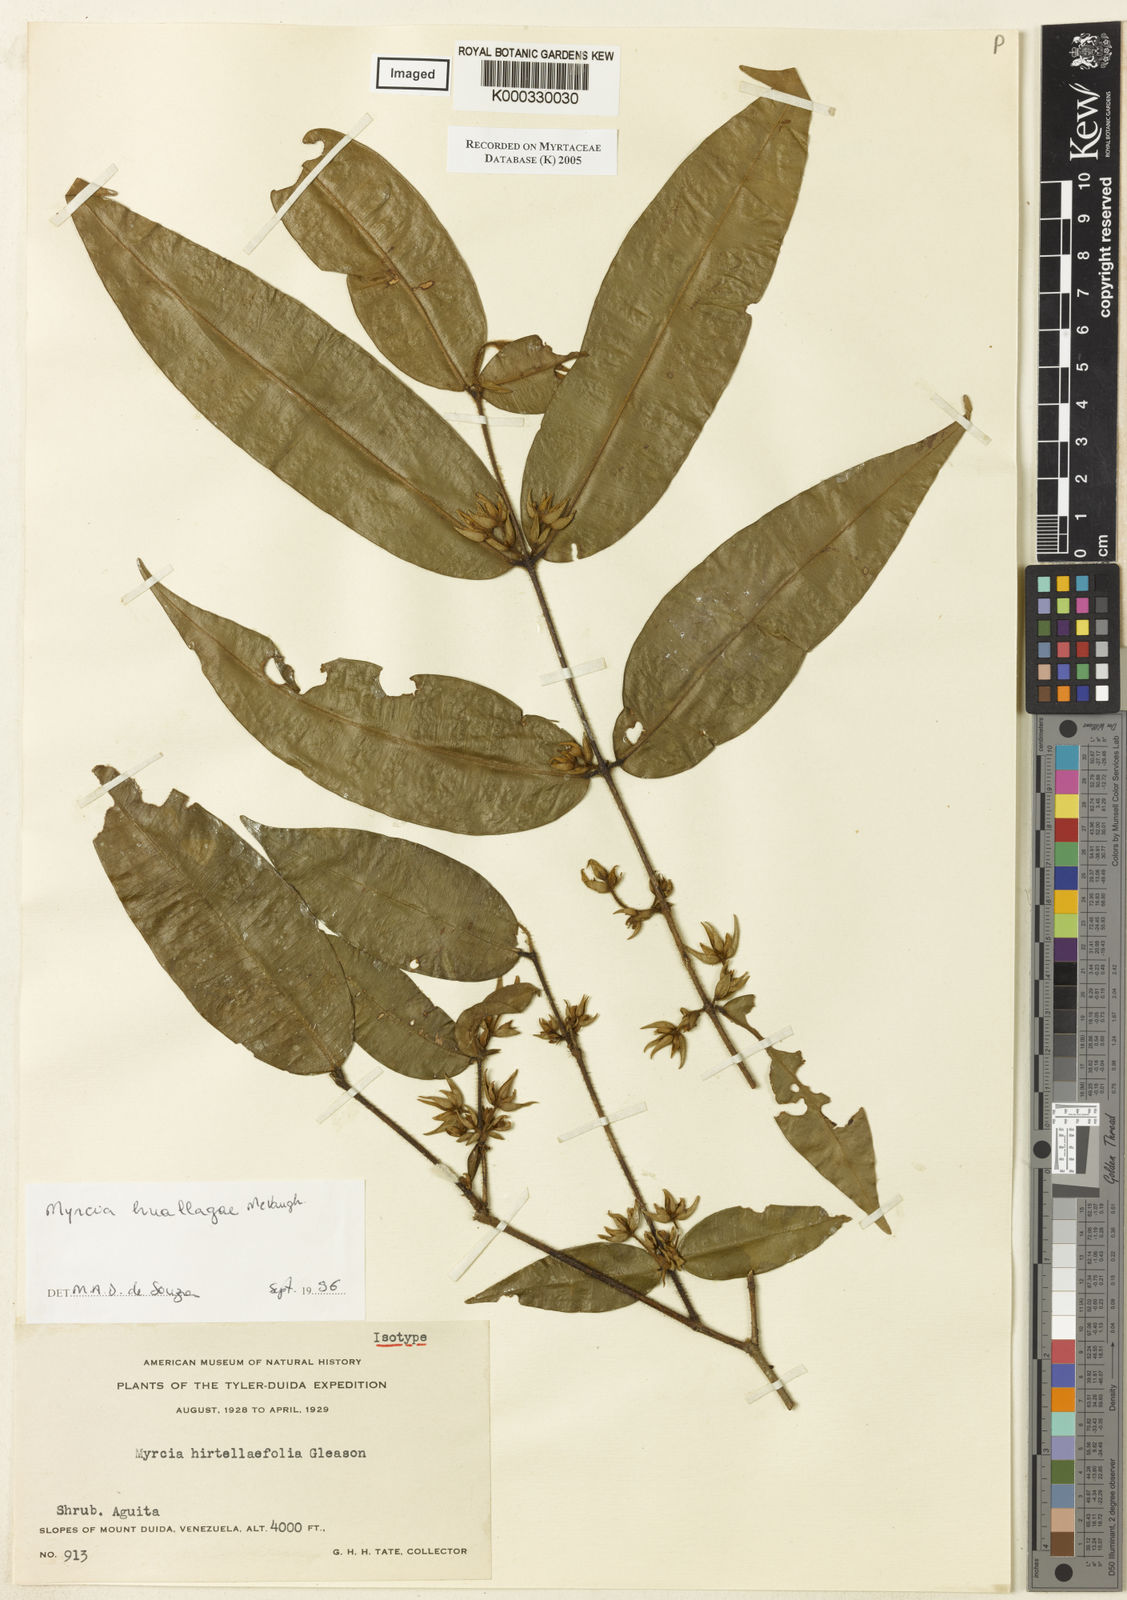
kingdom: Plantae
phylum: Tracheophyta
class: Magnoliopsida
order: Myrtales
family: Myrtaceae
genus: Myrcia
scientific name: Myrcia bracteata
